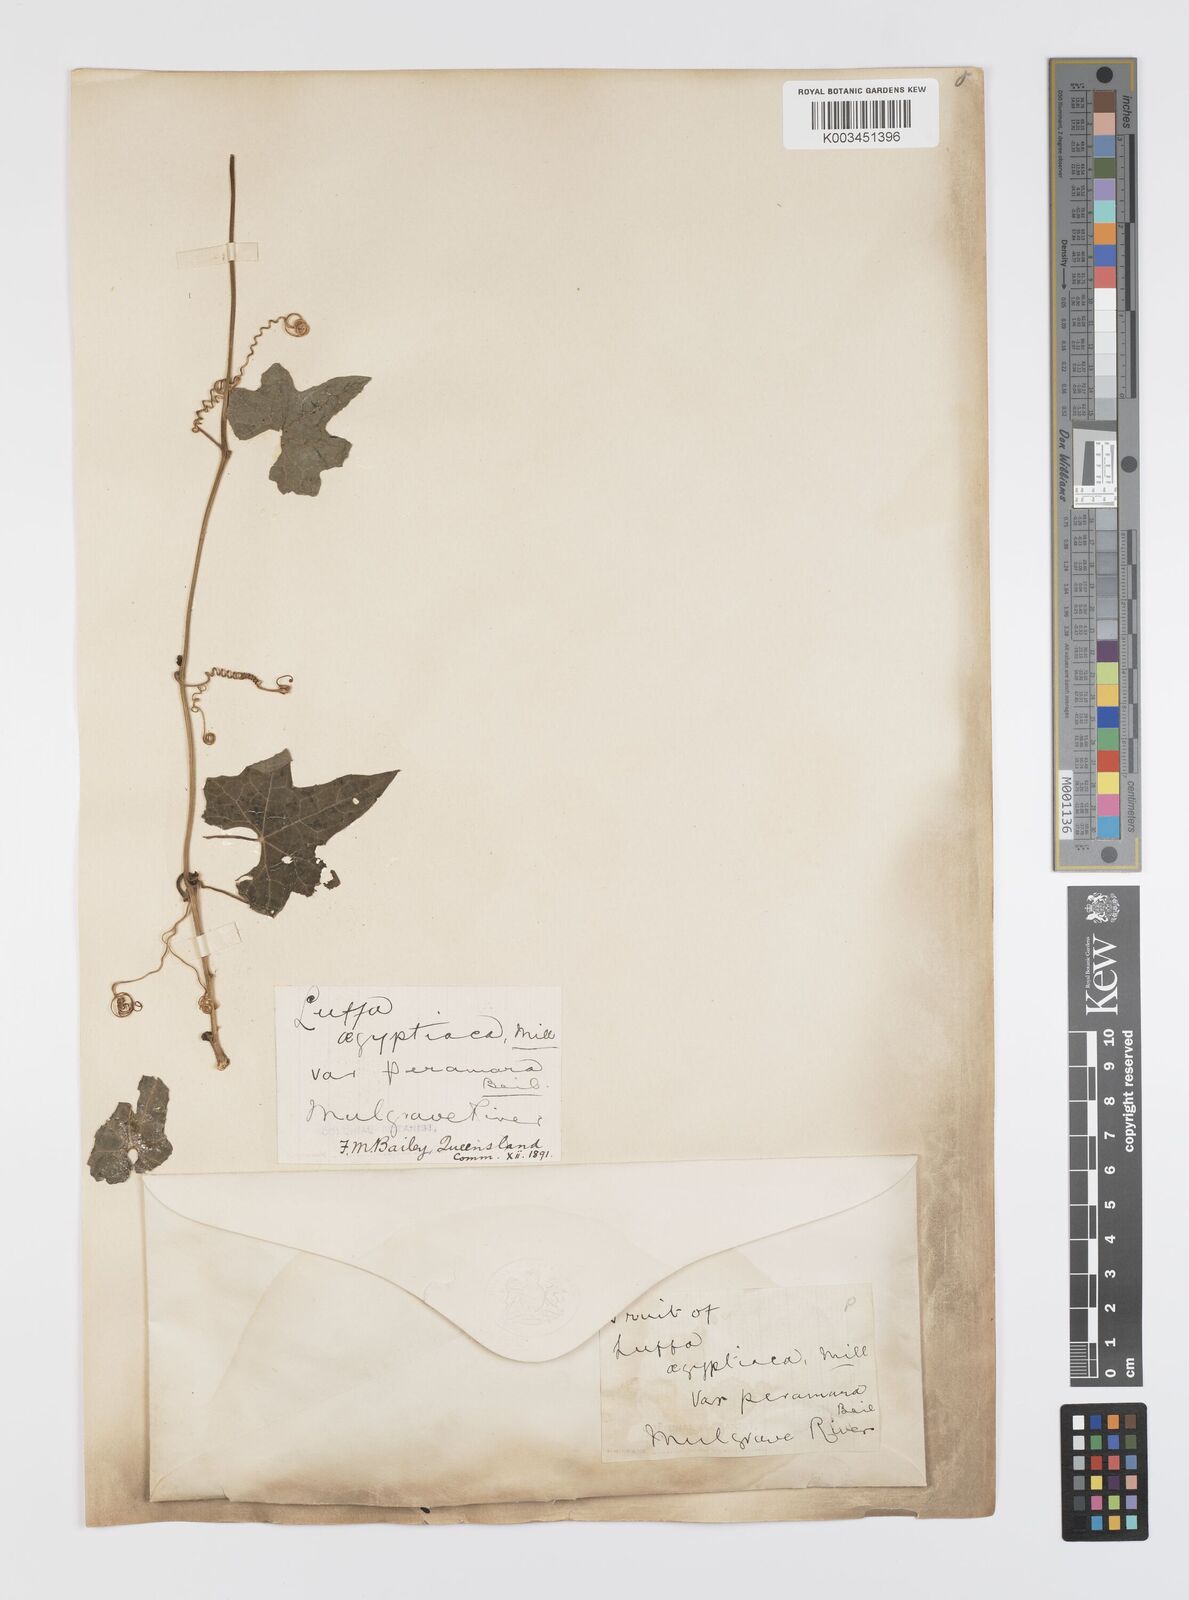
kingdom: Plantae
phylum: Tracheophyta
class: Magnoliopsida
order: Cucurbitales
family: Cucurbitaceae
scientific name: Cucurbitaceae
